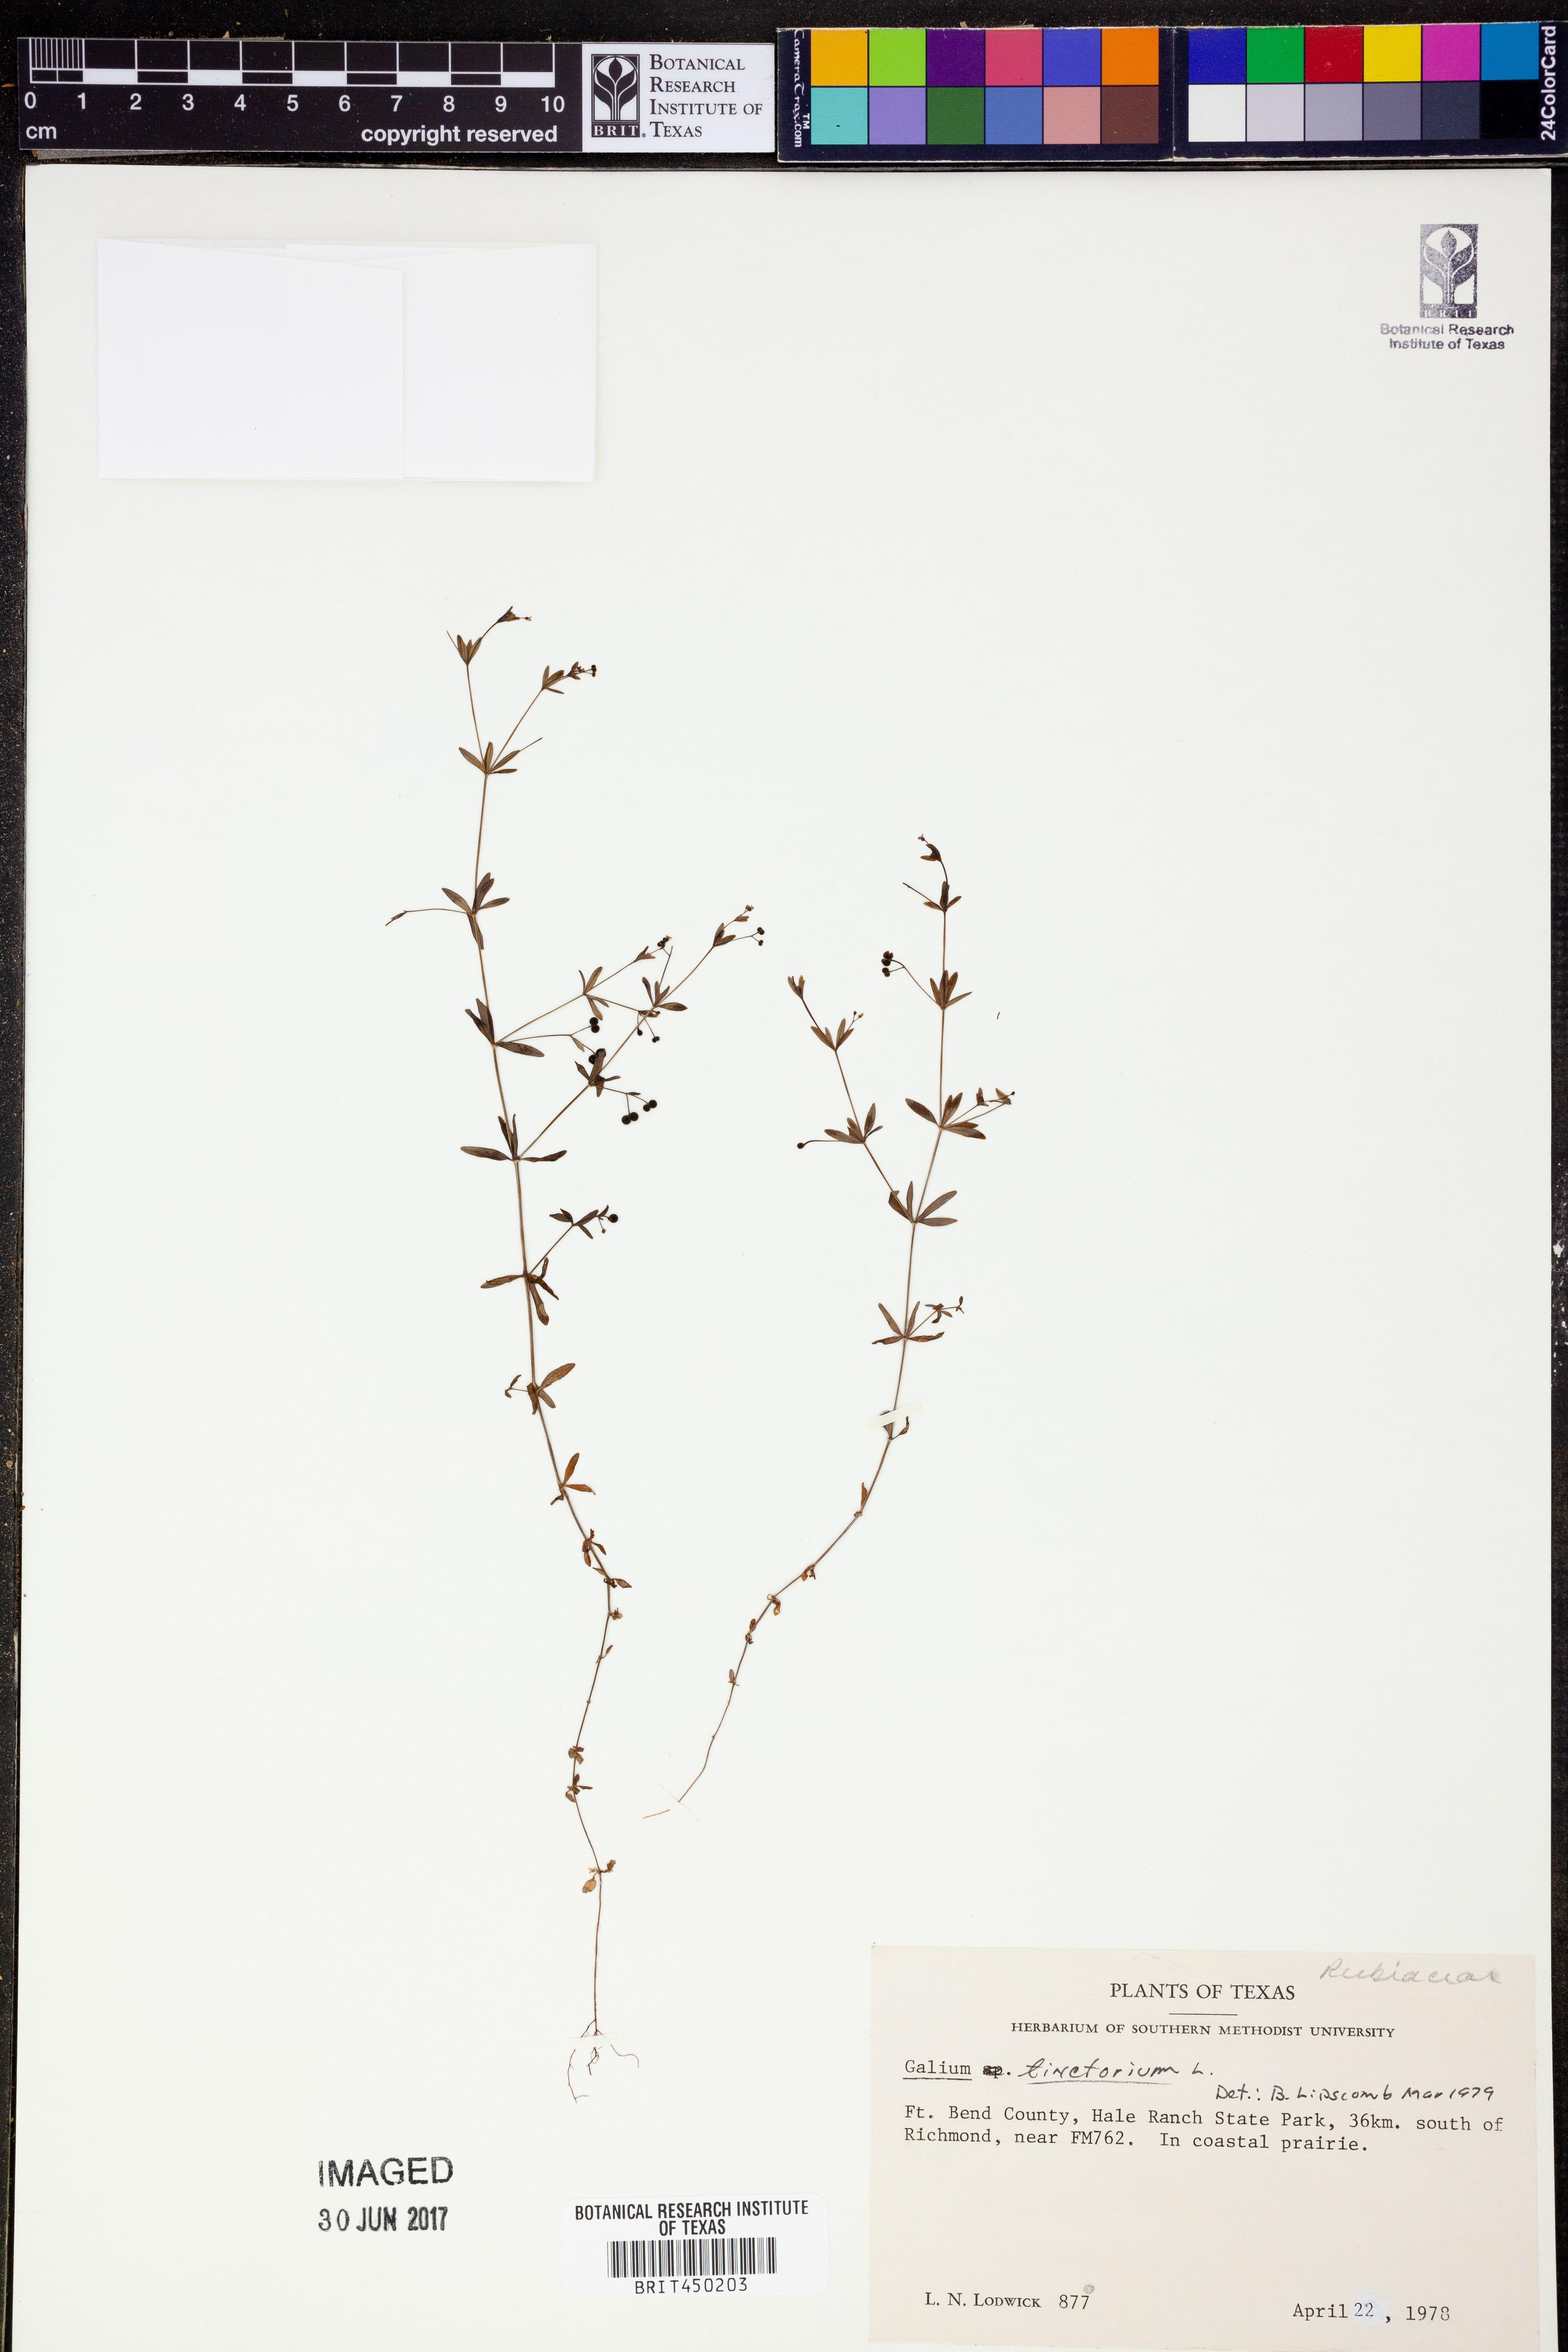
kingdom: Plantae
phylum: Tracheophyta
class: Magnoliopsida
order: Gentianales
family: Rubiaceae
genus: Asperula
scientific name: Asperula tinctoria
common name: Dyer's woodruff
